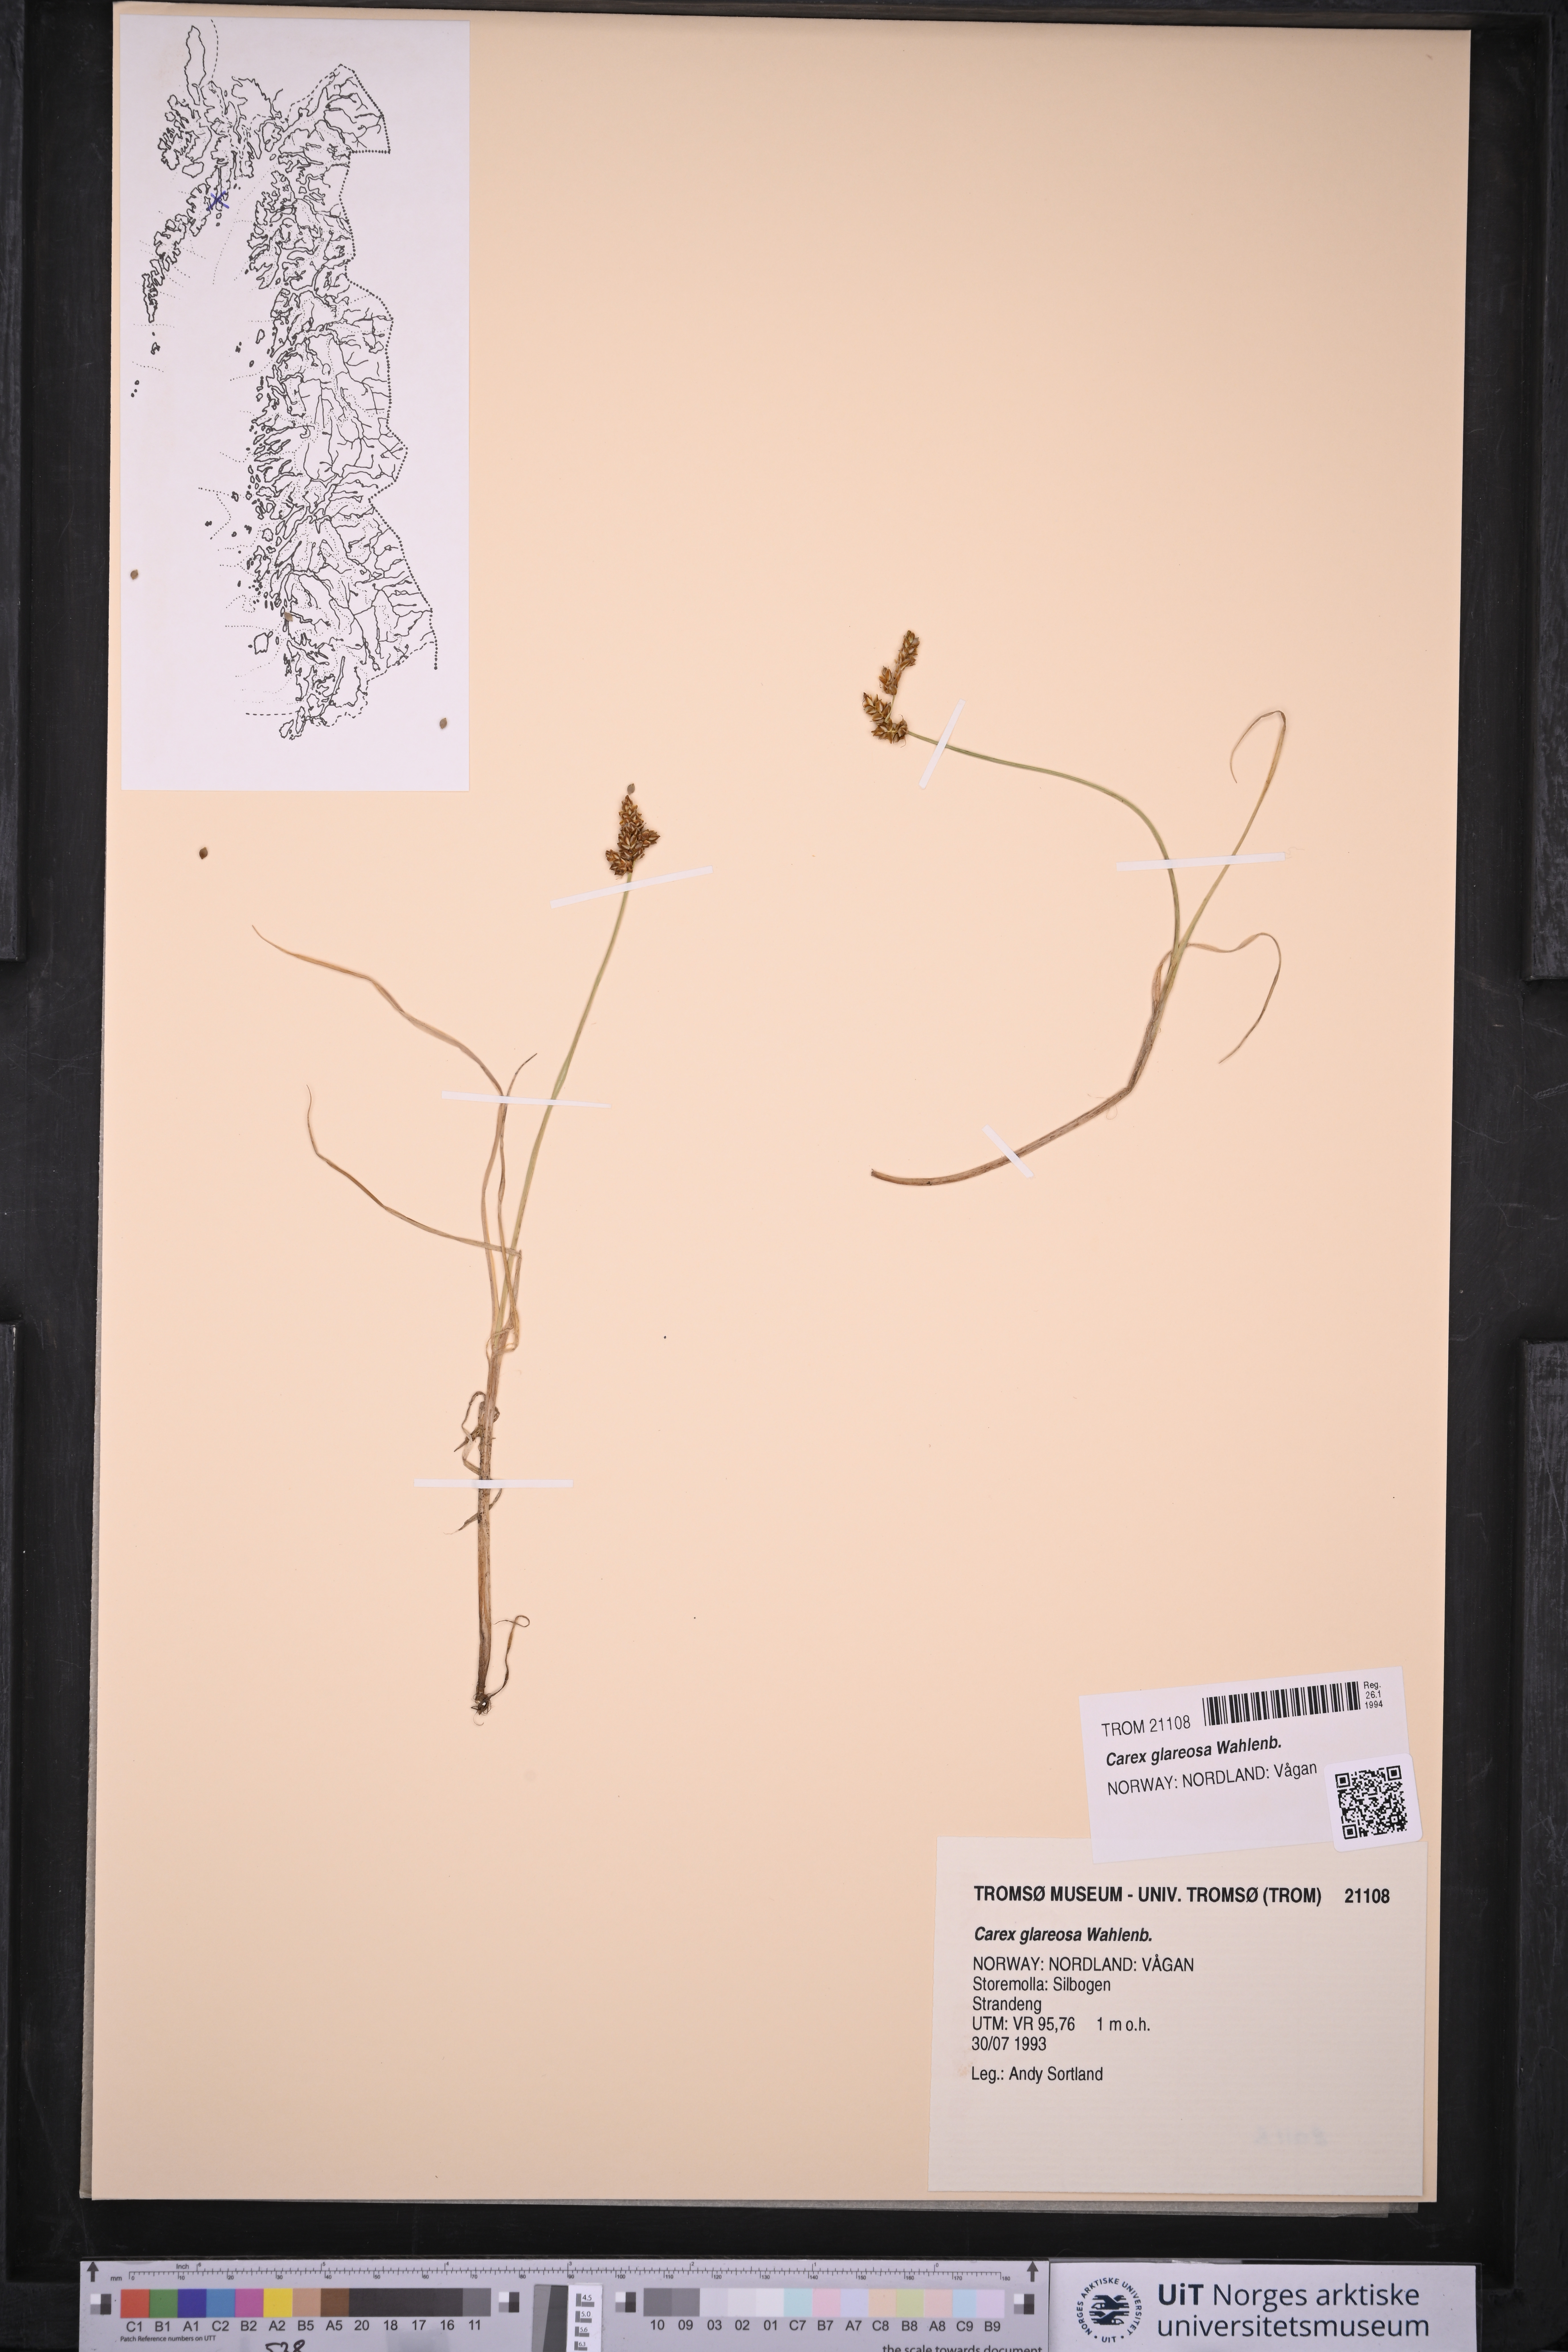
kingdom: Plantae
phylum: Tracheophyta
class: Liliopsida
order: Poales
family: Cyperaceae
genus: Carex
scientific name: Carex glareosa
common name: Clustered sedge
